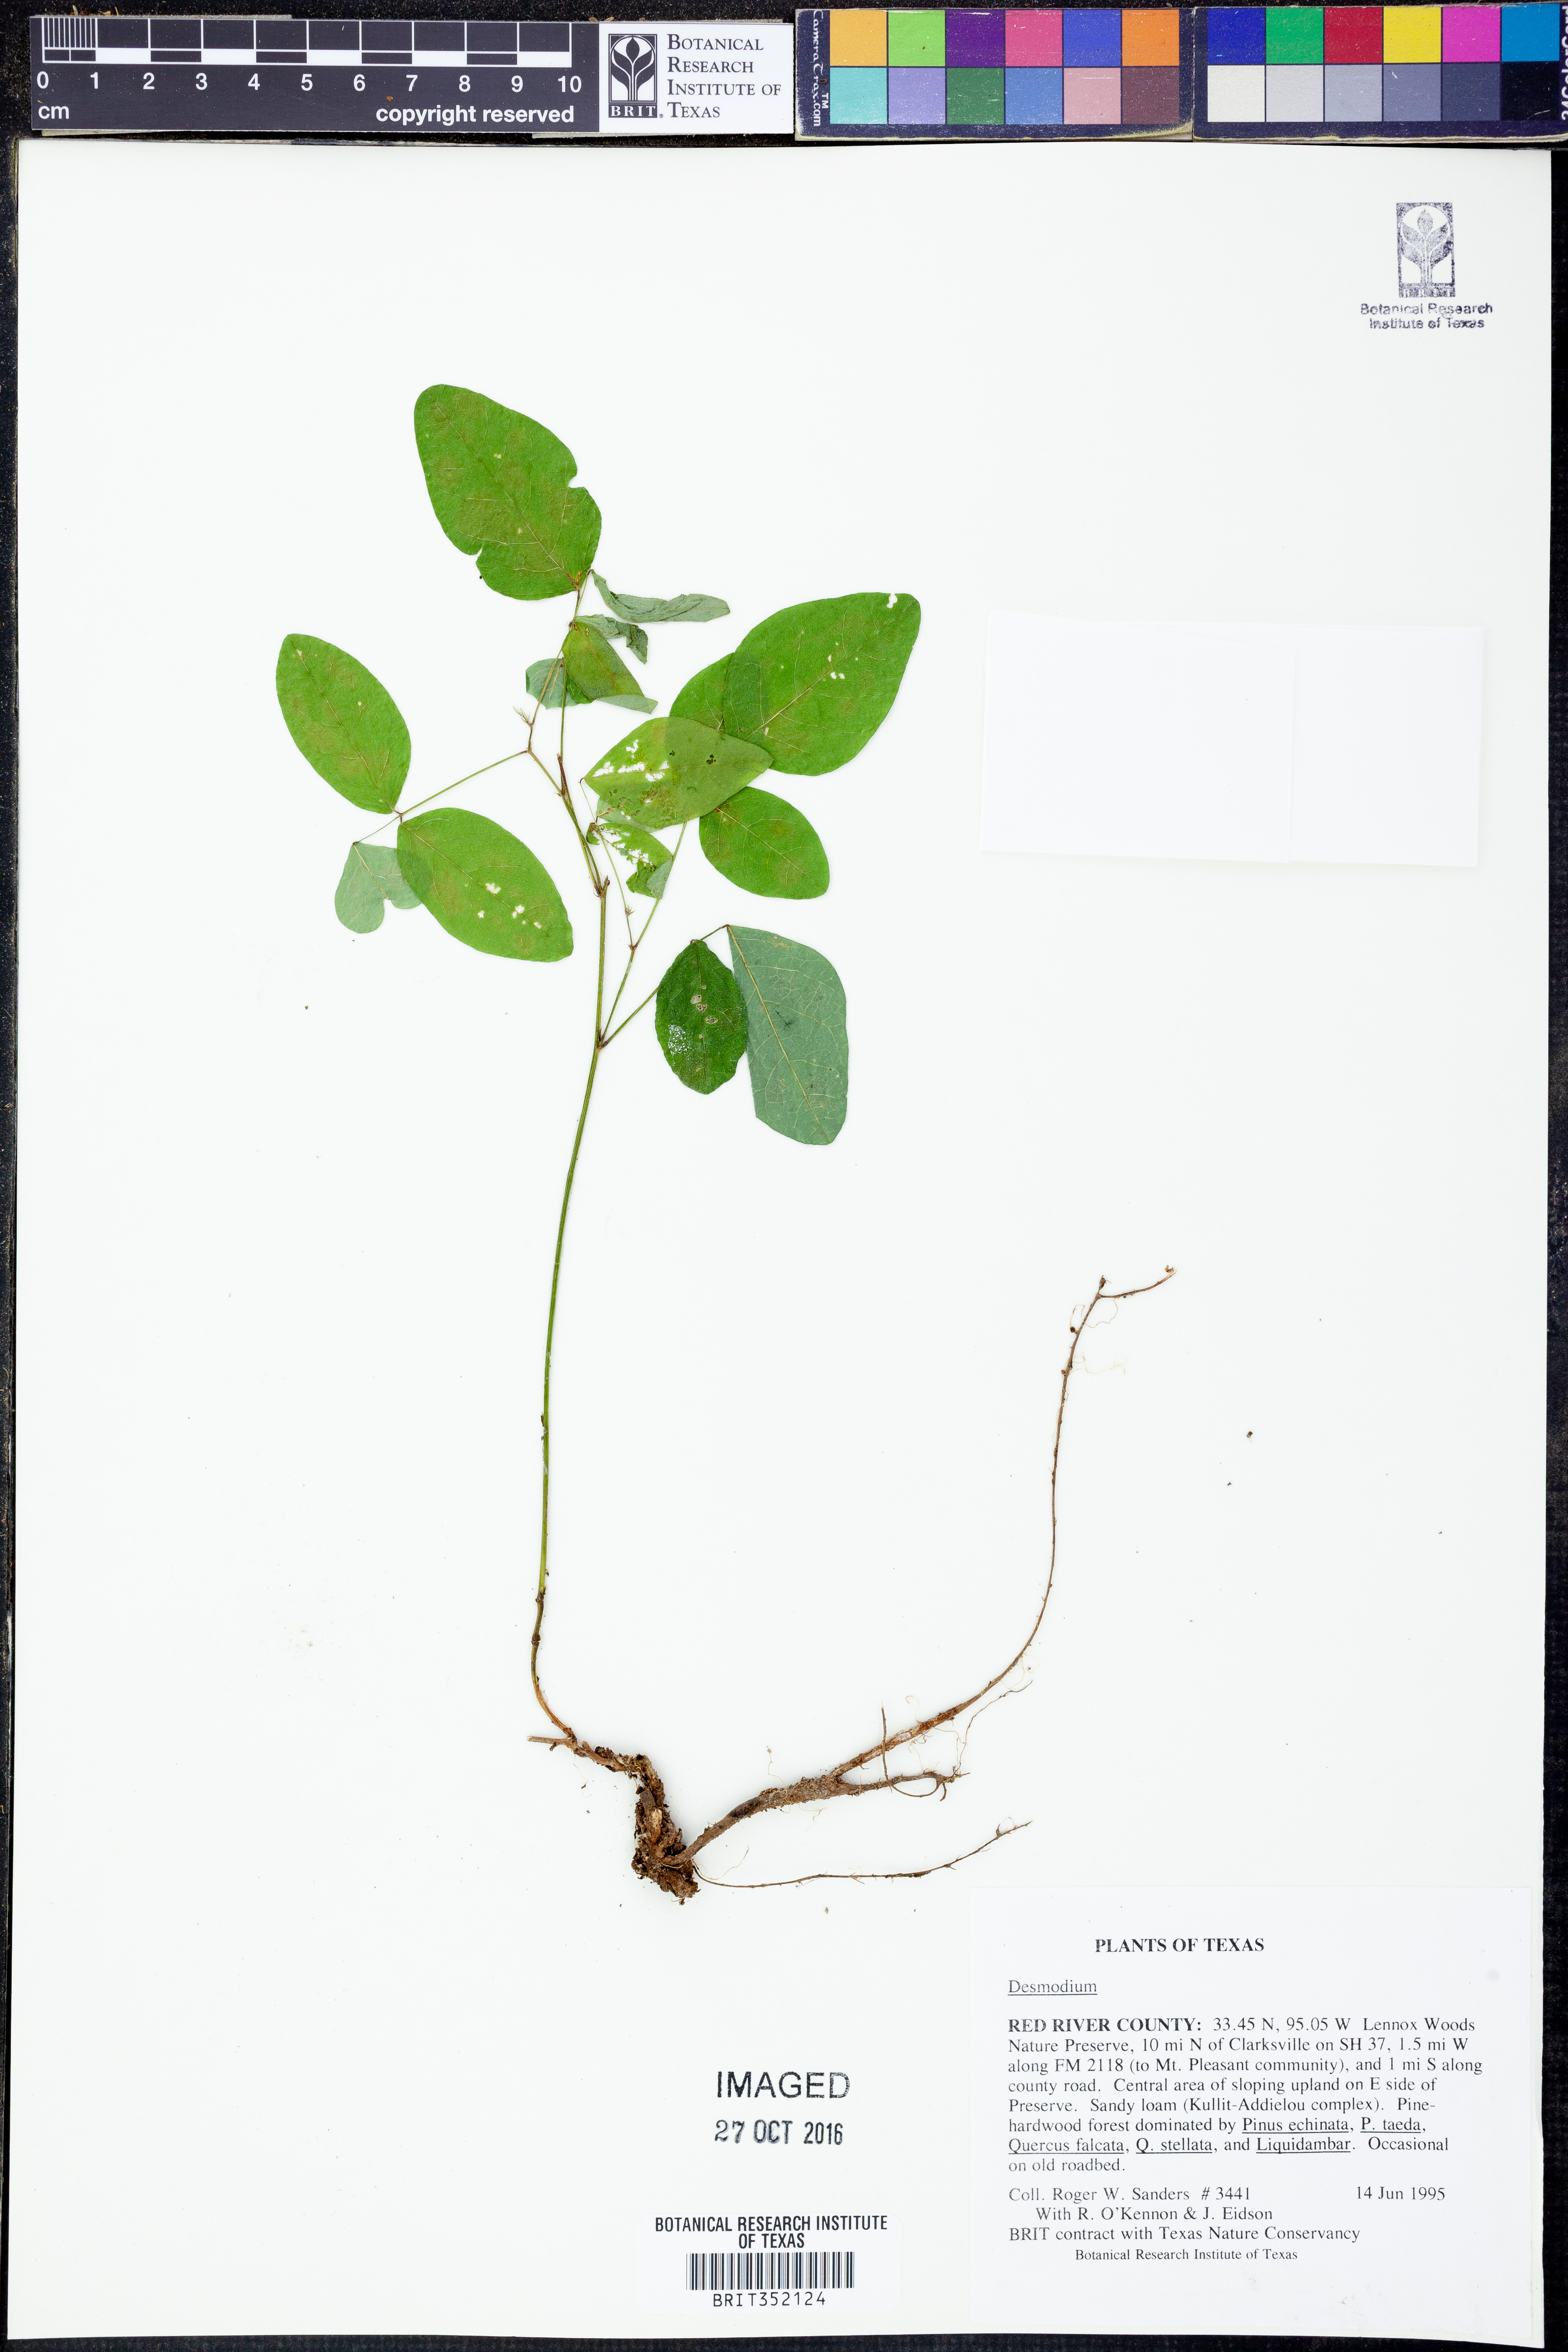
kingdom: Plantae
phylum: Tracheophyta
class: Magnoliopsida
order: Fabales
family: Fabaceae
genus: Desmodium
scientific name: Desmodium
